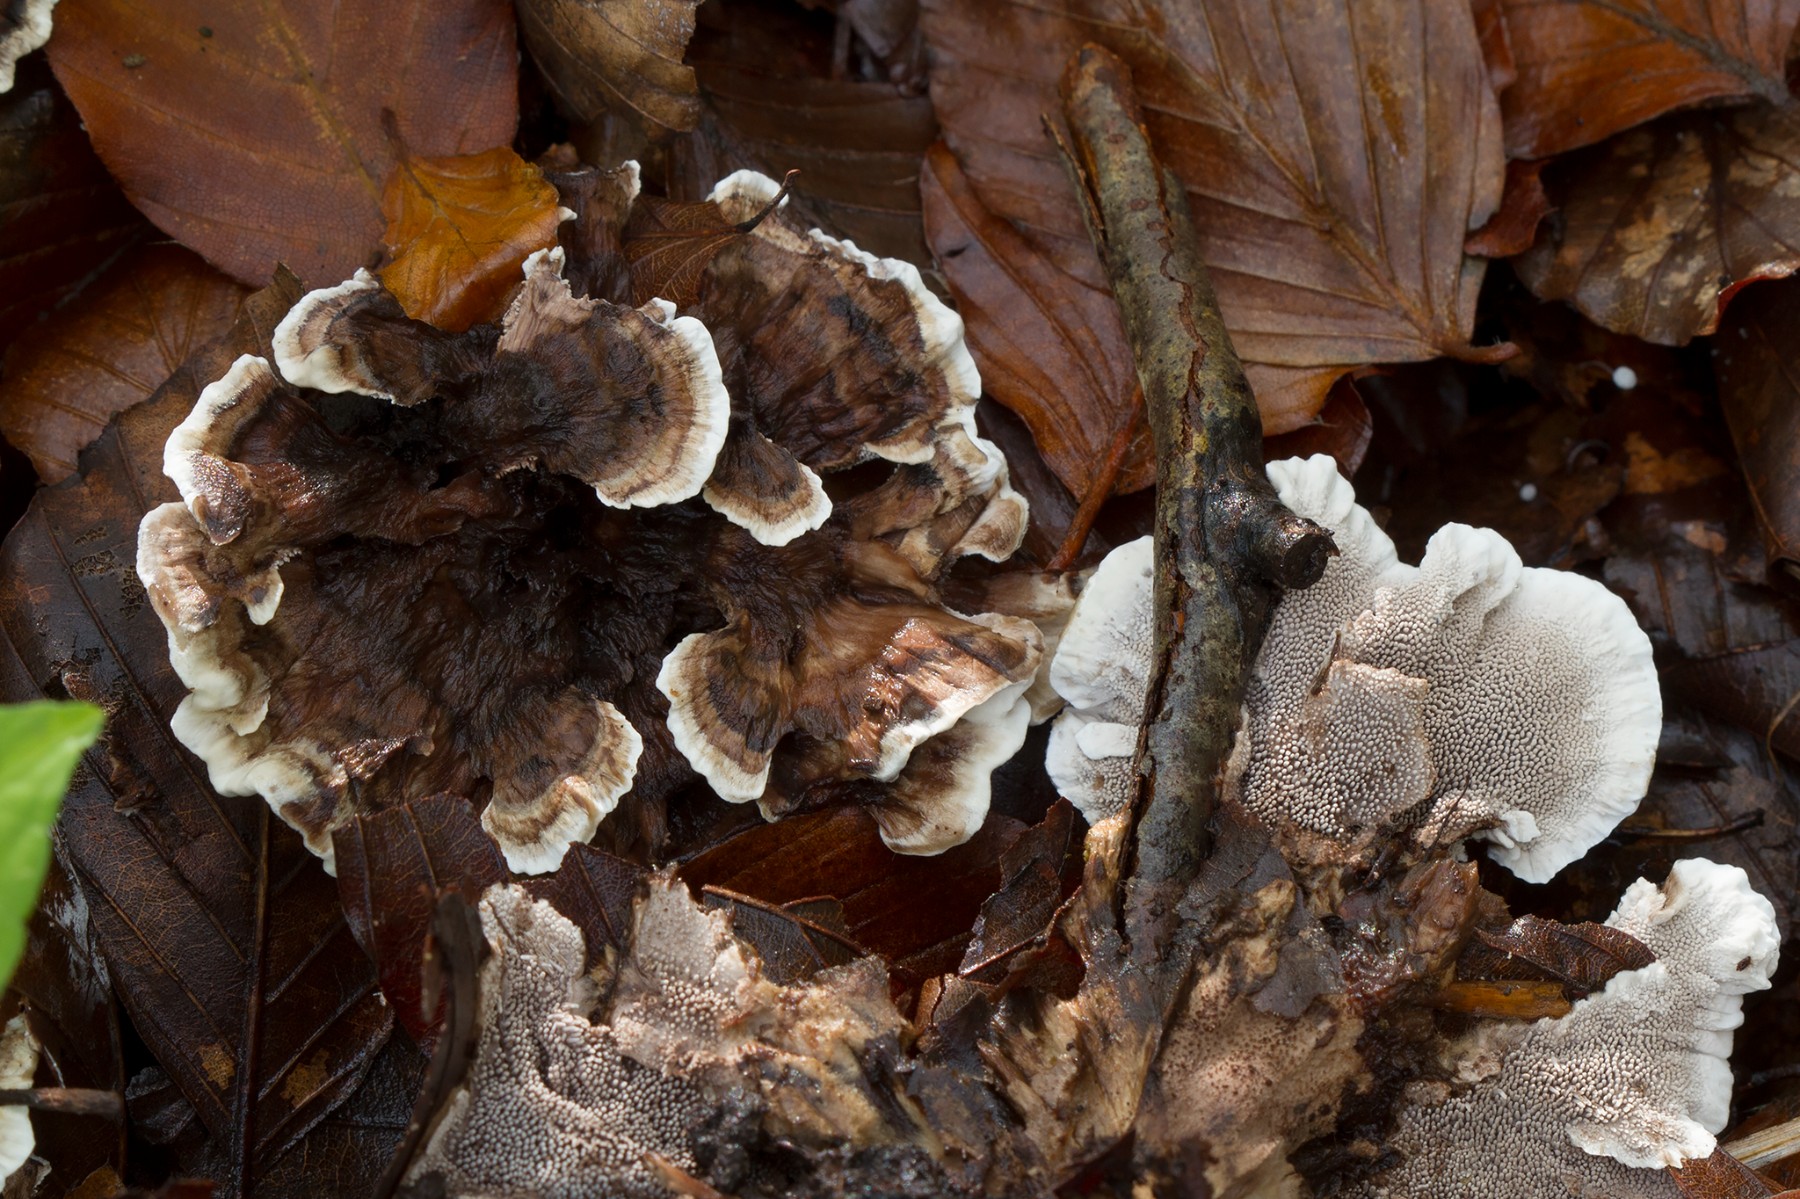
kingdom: Fungi
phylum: Basidiomycota
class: Agaricomycetes
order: Thelephorales
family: Thelephoraceae
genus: Phellodon
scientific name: Phellodon confluens
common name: pjaltet duftpigsvamp
